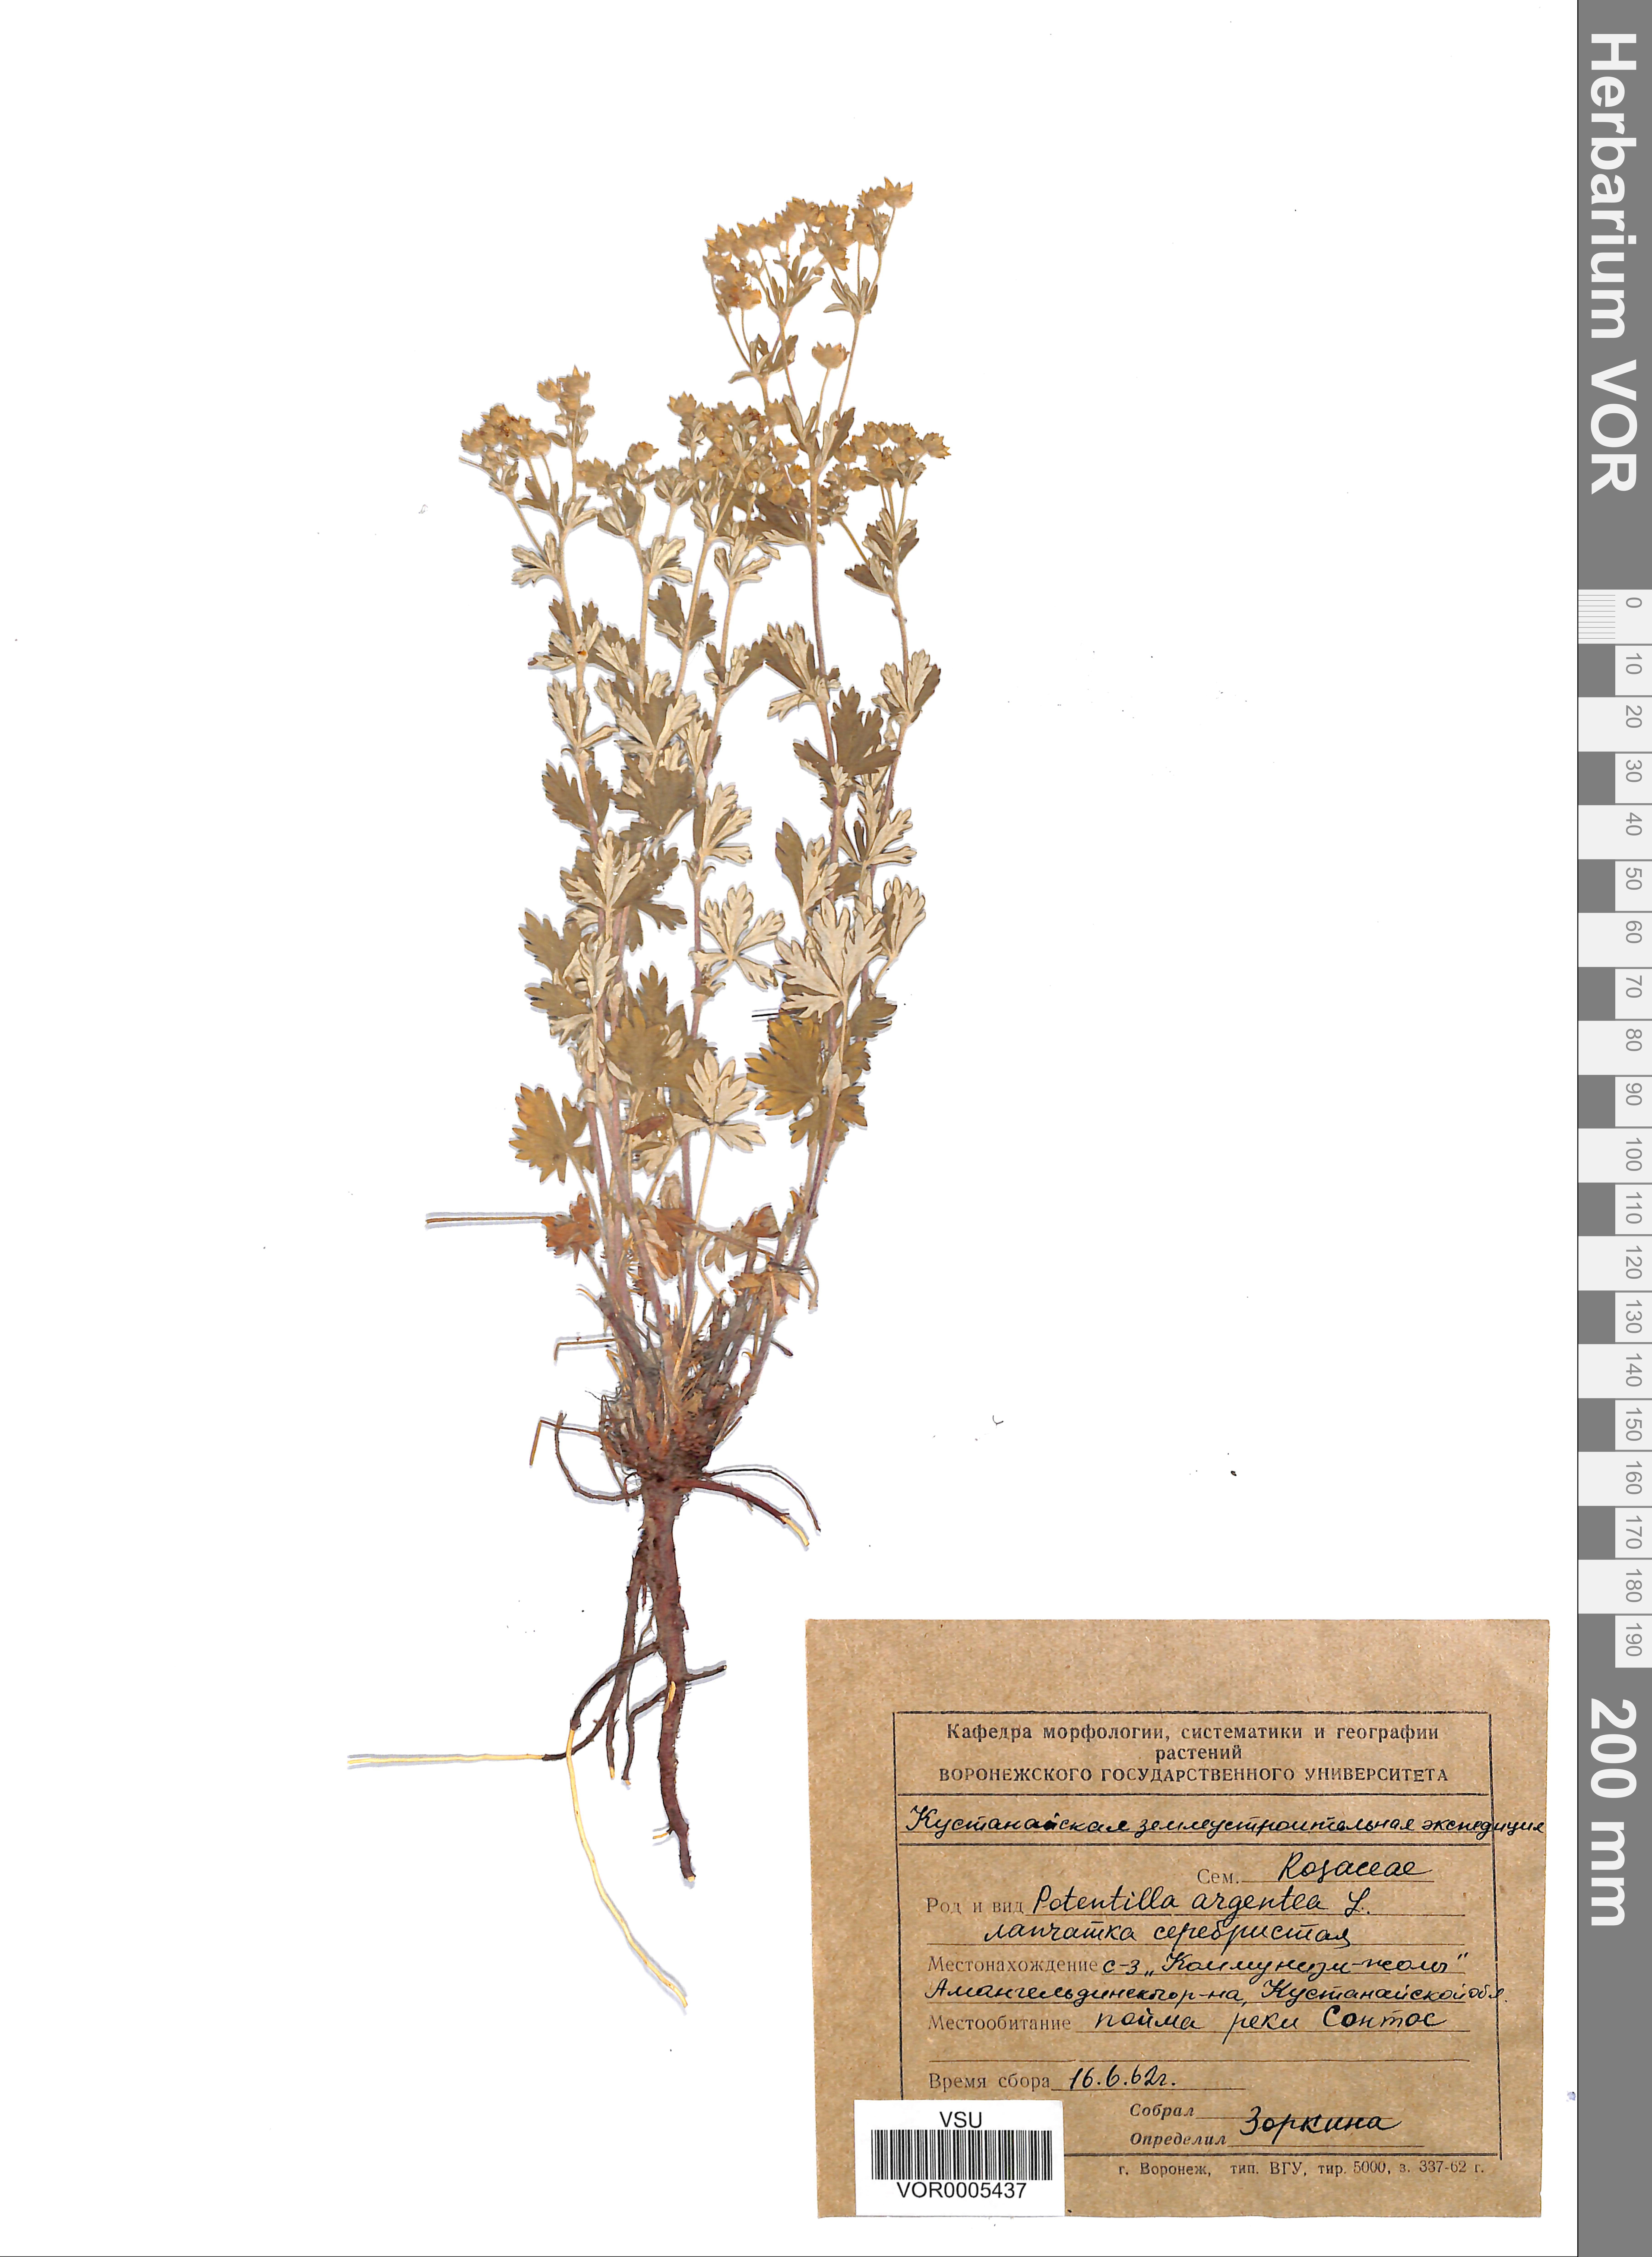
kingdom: Plantae
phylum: Tracheophyta
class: Magnoliopsida
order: Rosales
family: Rosaceae
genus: Potentilla
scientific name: Potentilla argentea
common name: Hoary cinquefoil
